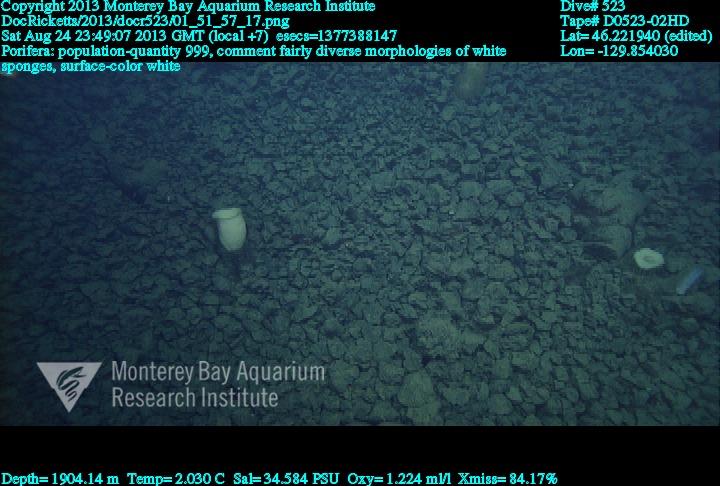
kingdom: Animalia
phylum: Porifera
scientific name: Porifera
